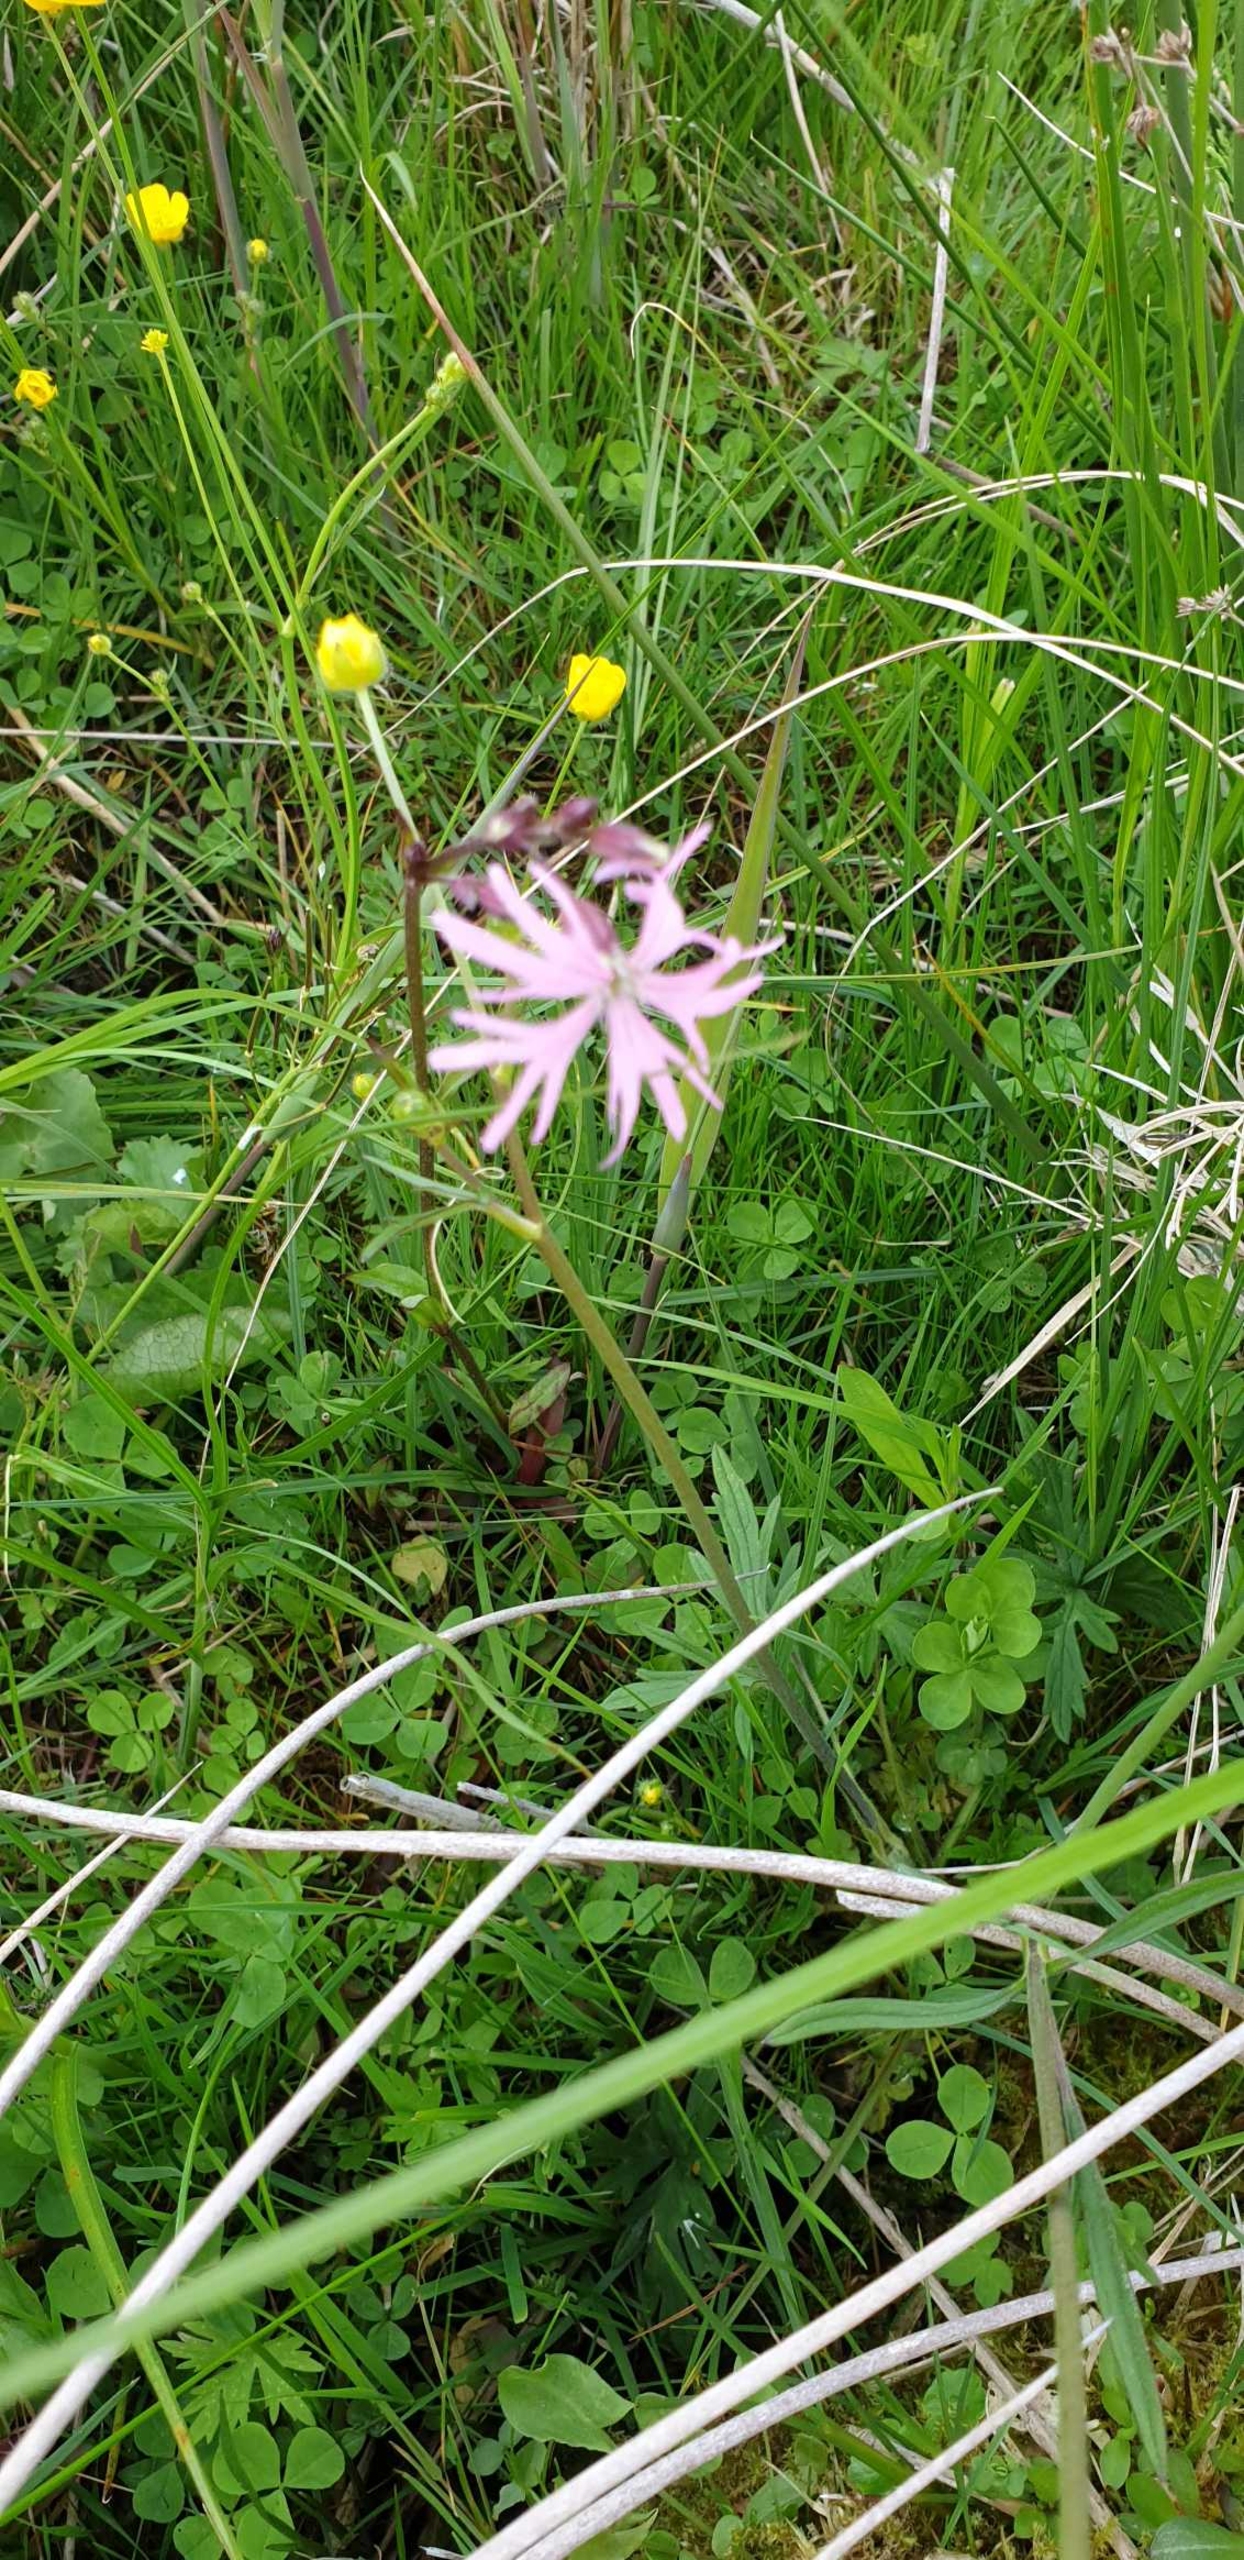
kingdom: Plantae
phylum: Tracheophyta
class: Magnoliopsida
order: Caryophyllales
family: Caryophyllaceae
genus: Silene
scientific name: Silene flos-cuculi
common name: Trævlekrone
